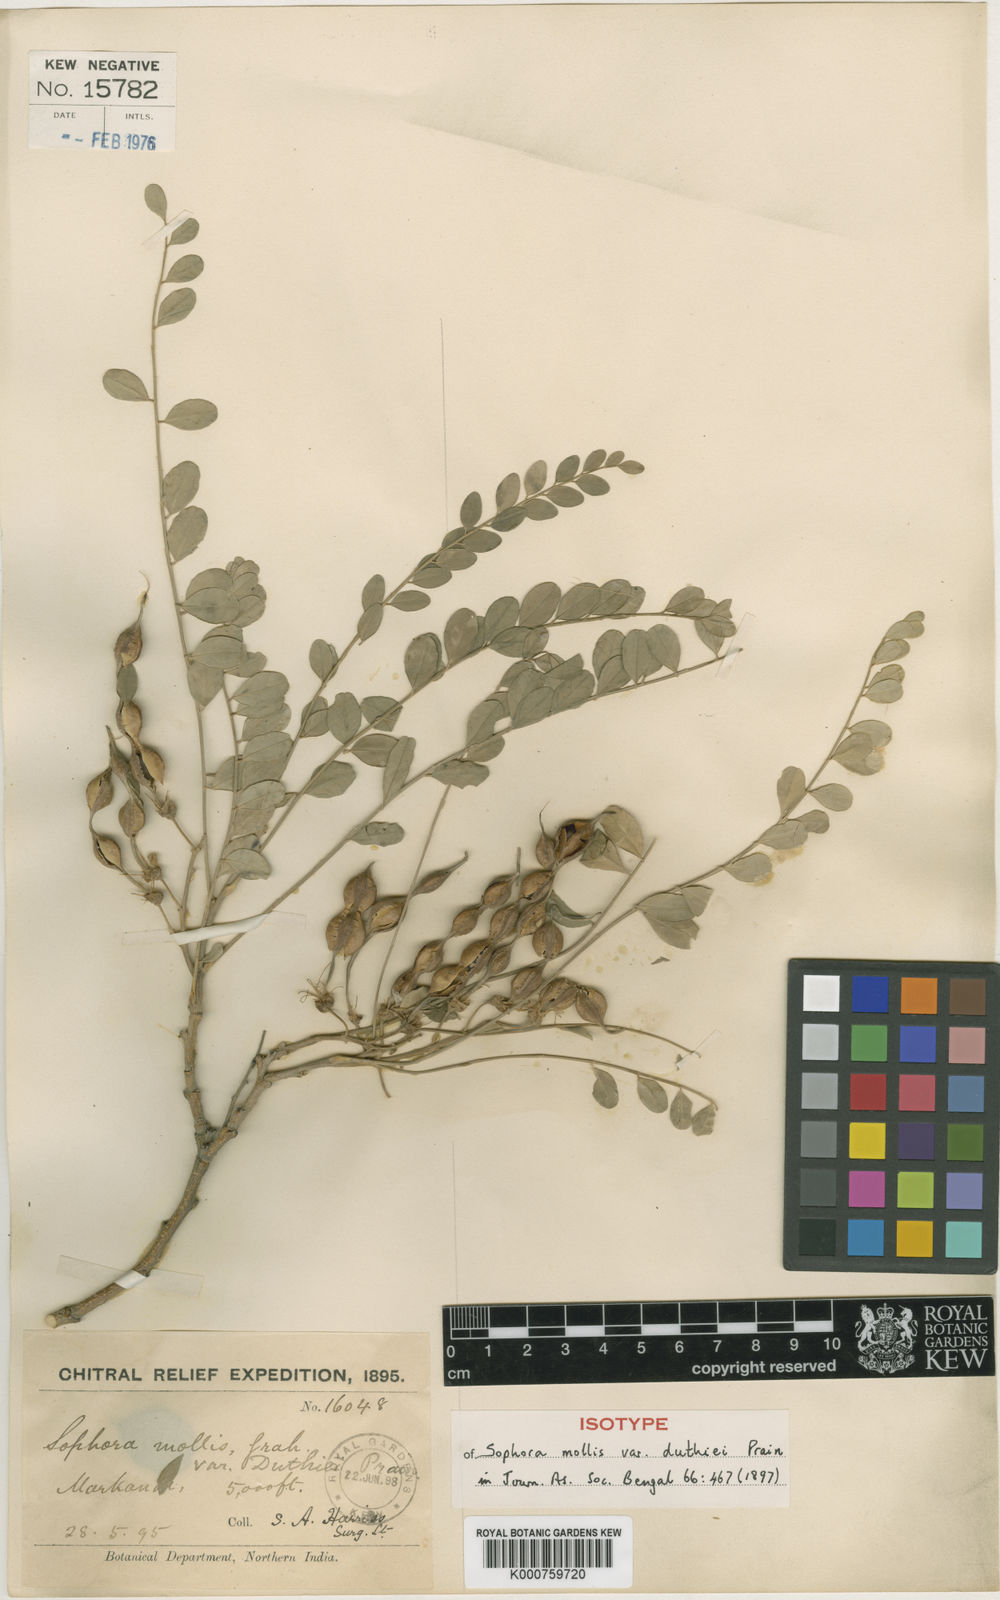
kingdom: Plantae
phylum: Tracheophyta
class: Magnoliopsida
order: Fabales
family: Fabaceae
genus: Sophora
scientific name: Sophora mollis
